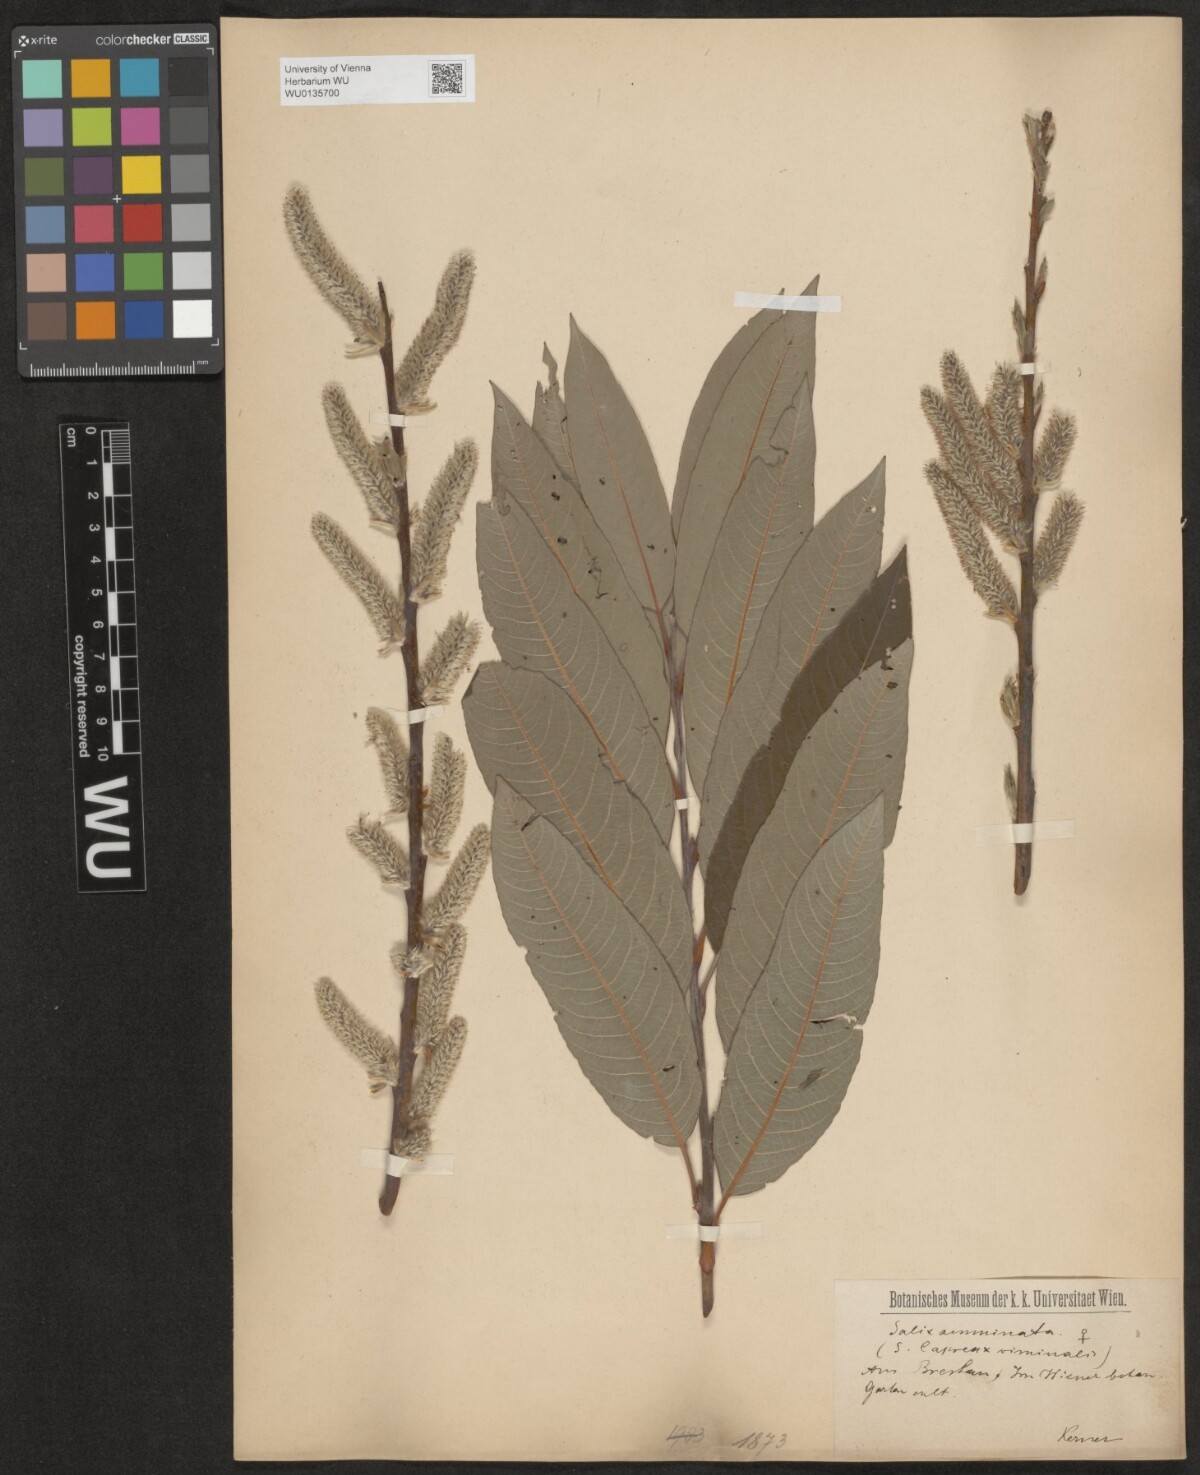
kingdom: Plantae
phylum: Tracheophyta
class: Magnoliopsida
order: Malpighiales
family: Salicaceae
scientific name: Salicaceae
